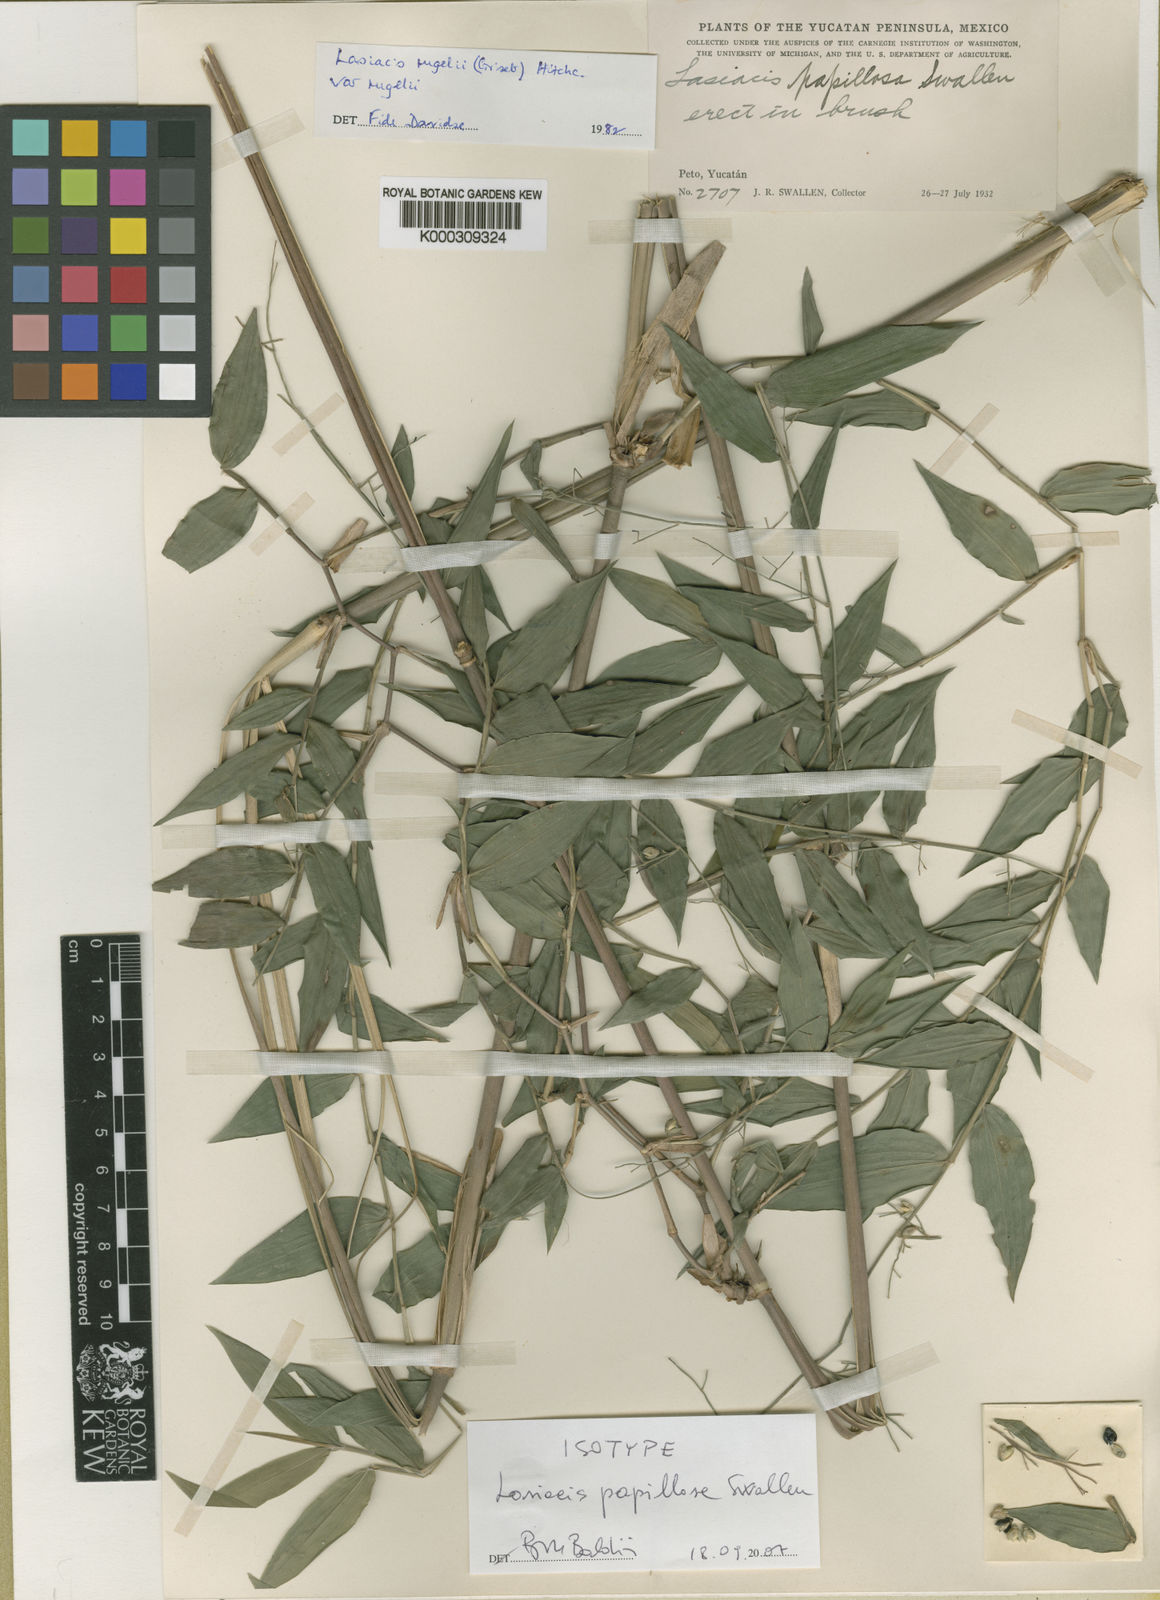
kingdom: Plantae
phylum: Tracheophyta
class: Liliopsida
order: Poales
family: Poaceae
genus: Lasiacis
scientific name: Lasiacis rugelii
